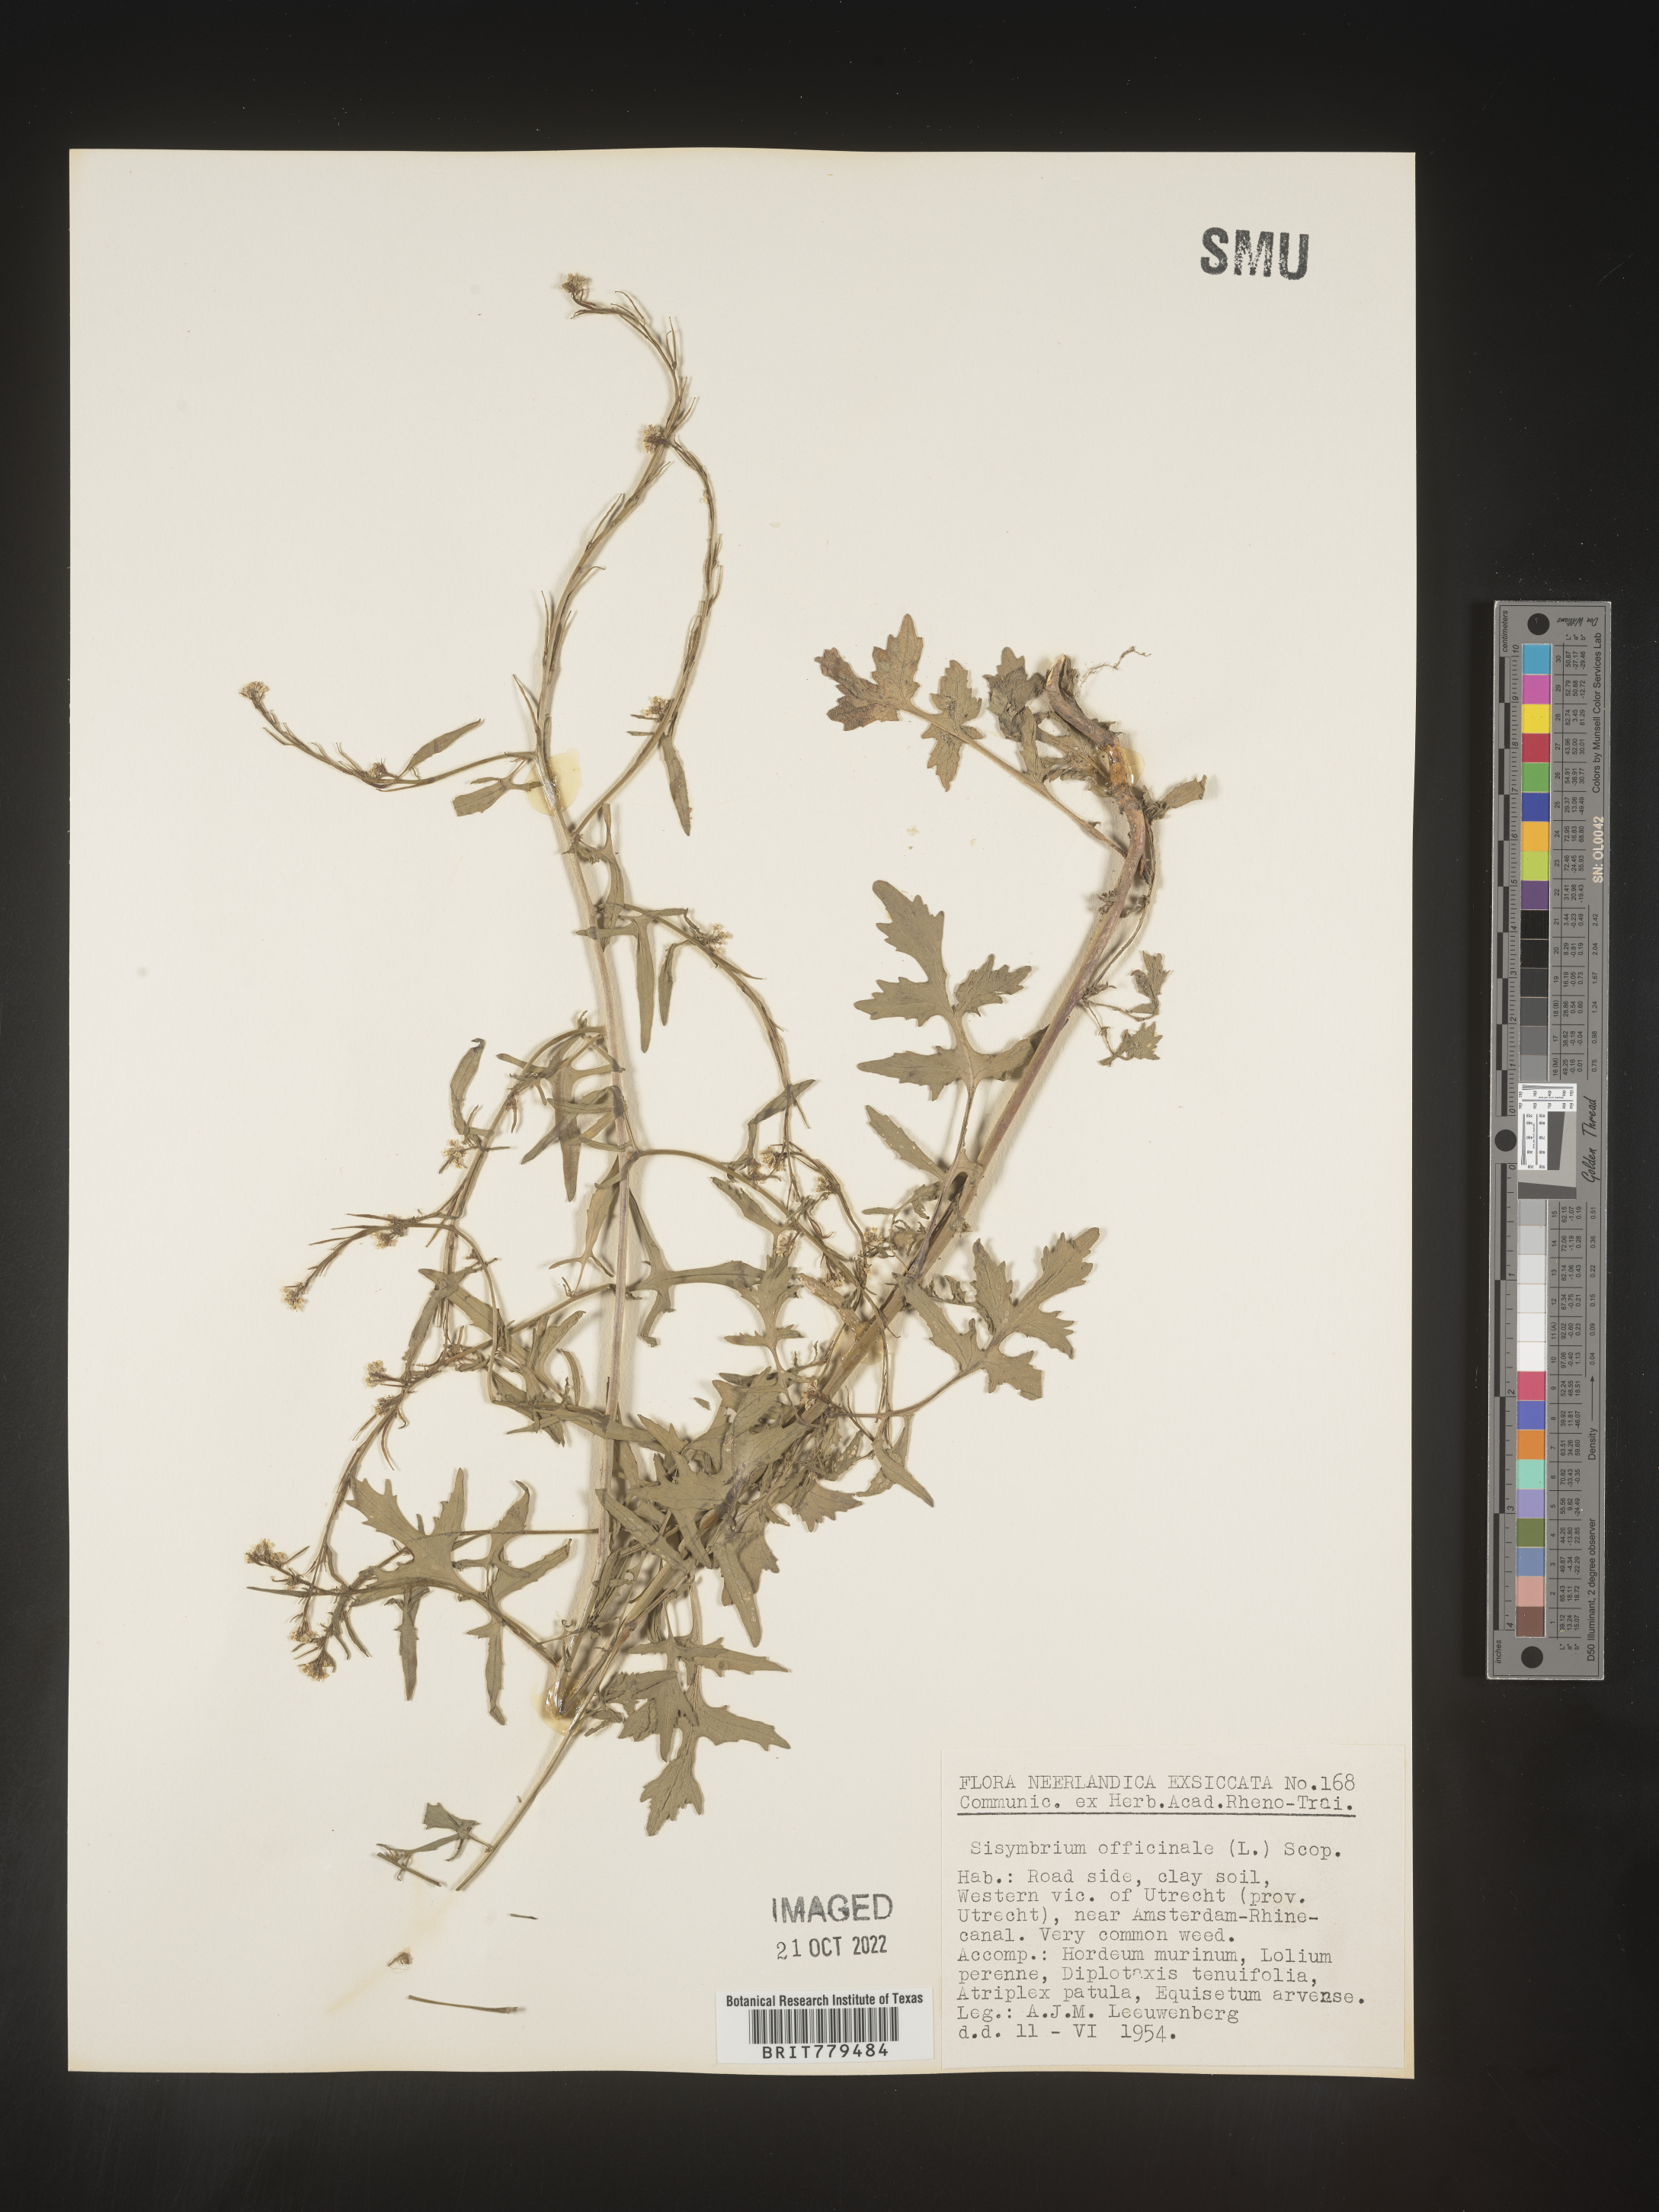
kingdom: Plantae
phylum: Tracheophyta
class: Magnoliopsida
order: Brassicales
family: Brassicaceae
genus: Sisymbrium
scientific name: Sisymbrium
